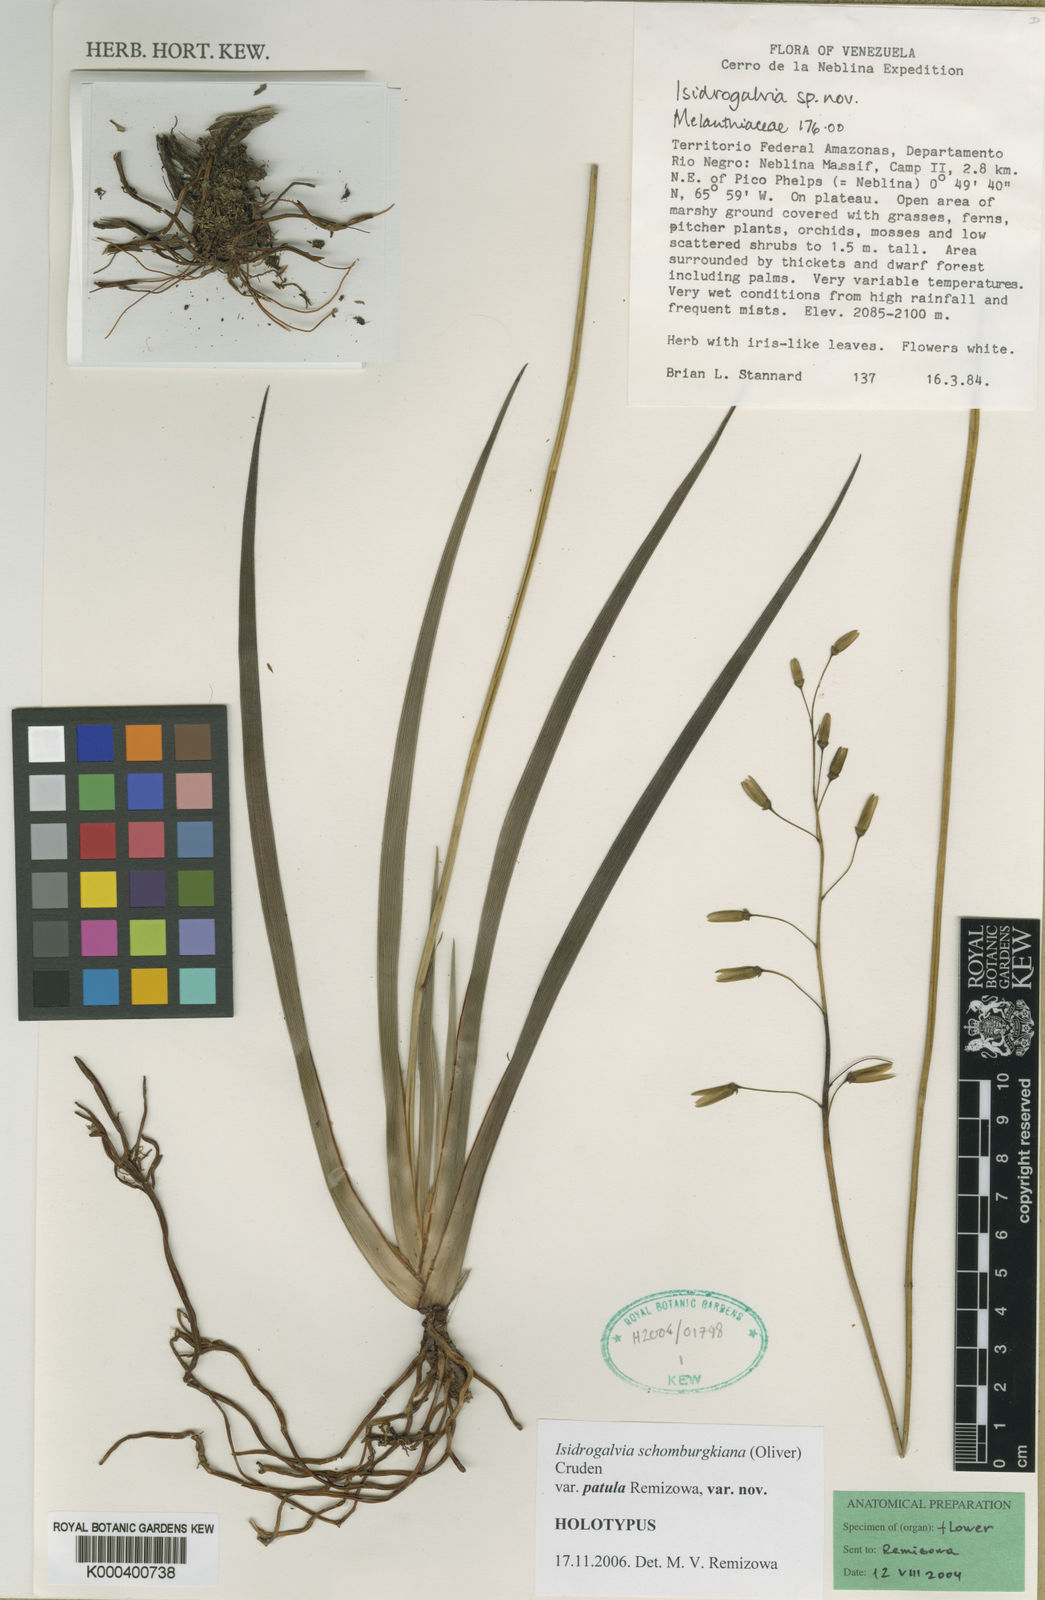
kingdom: Plantae
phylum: Tracheophyta
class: Liliopsida
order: Alismatales
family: Tofieldiaceae
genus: Harperocallis
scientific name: Harperocallis penduliflora
